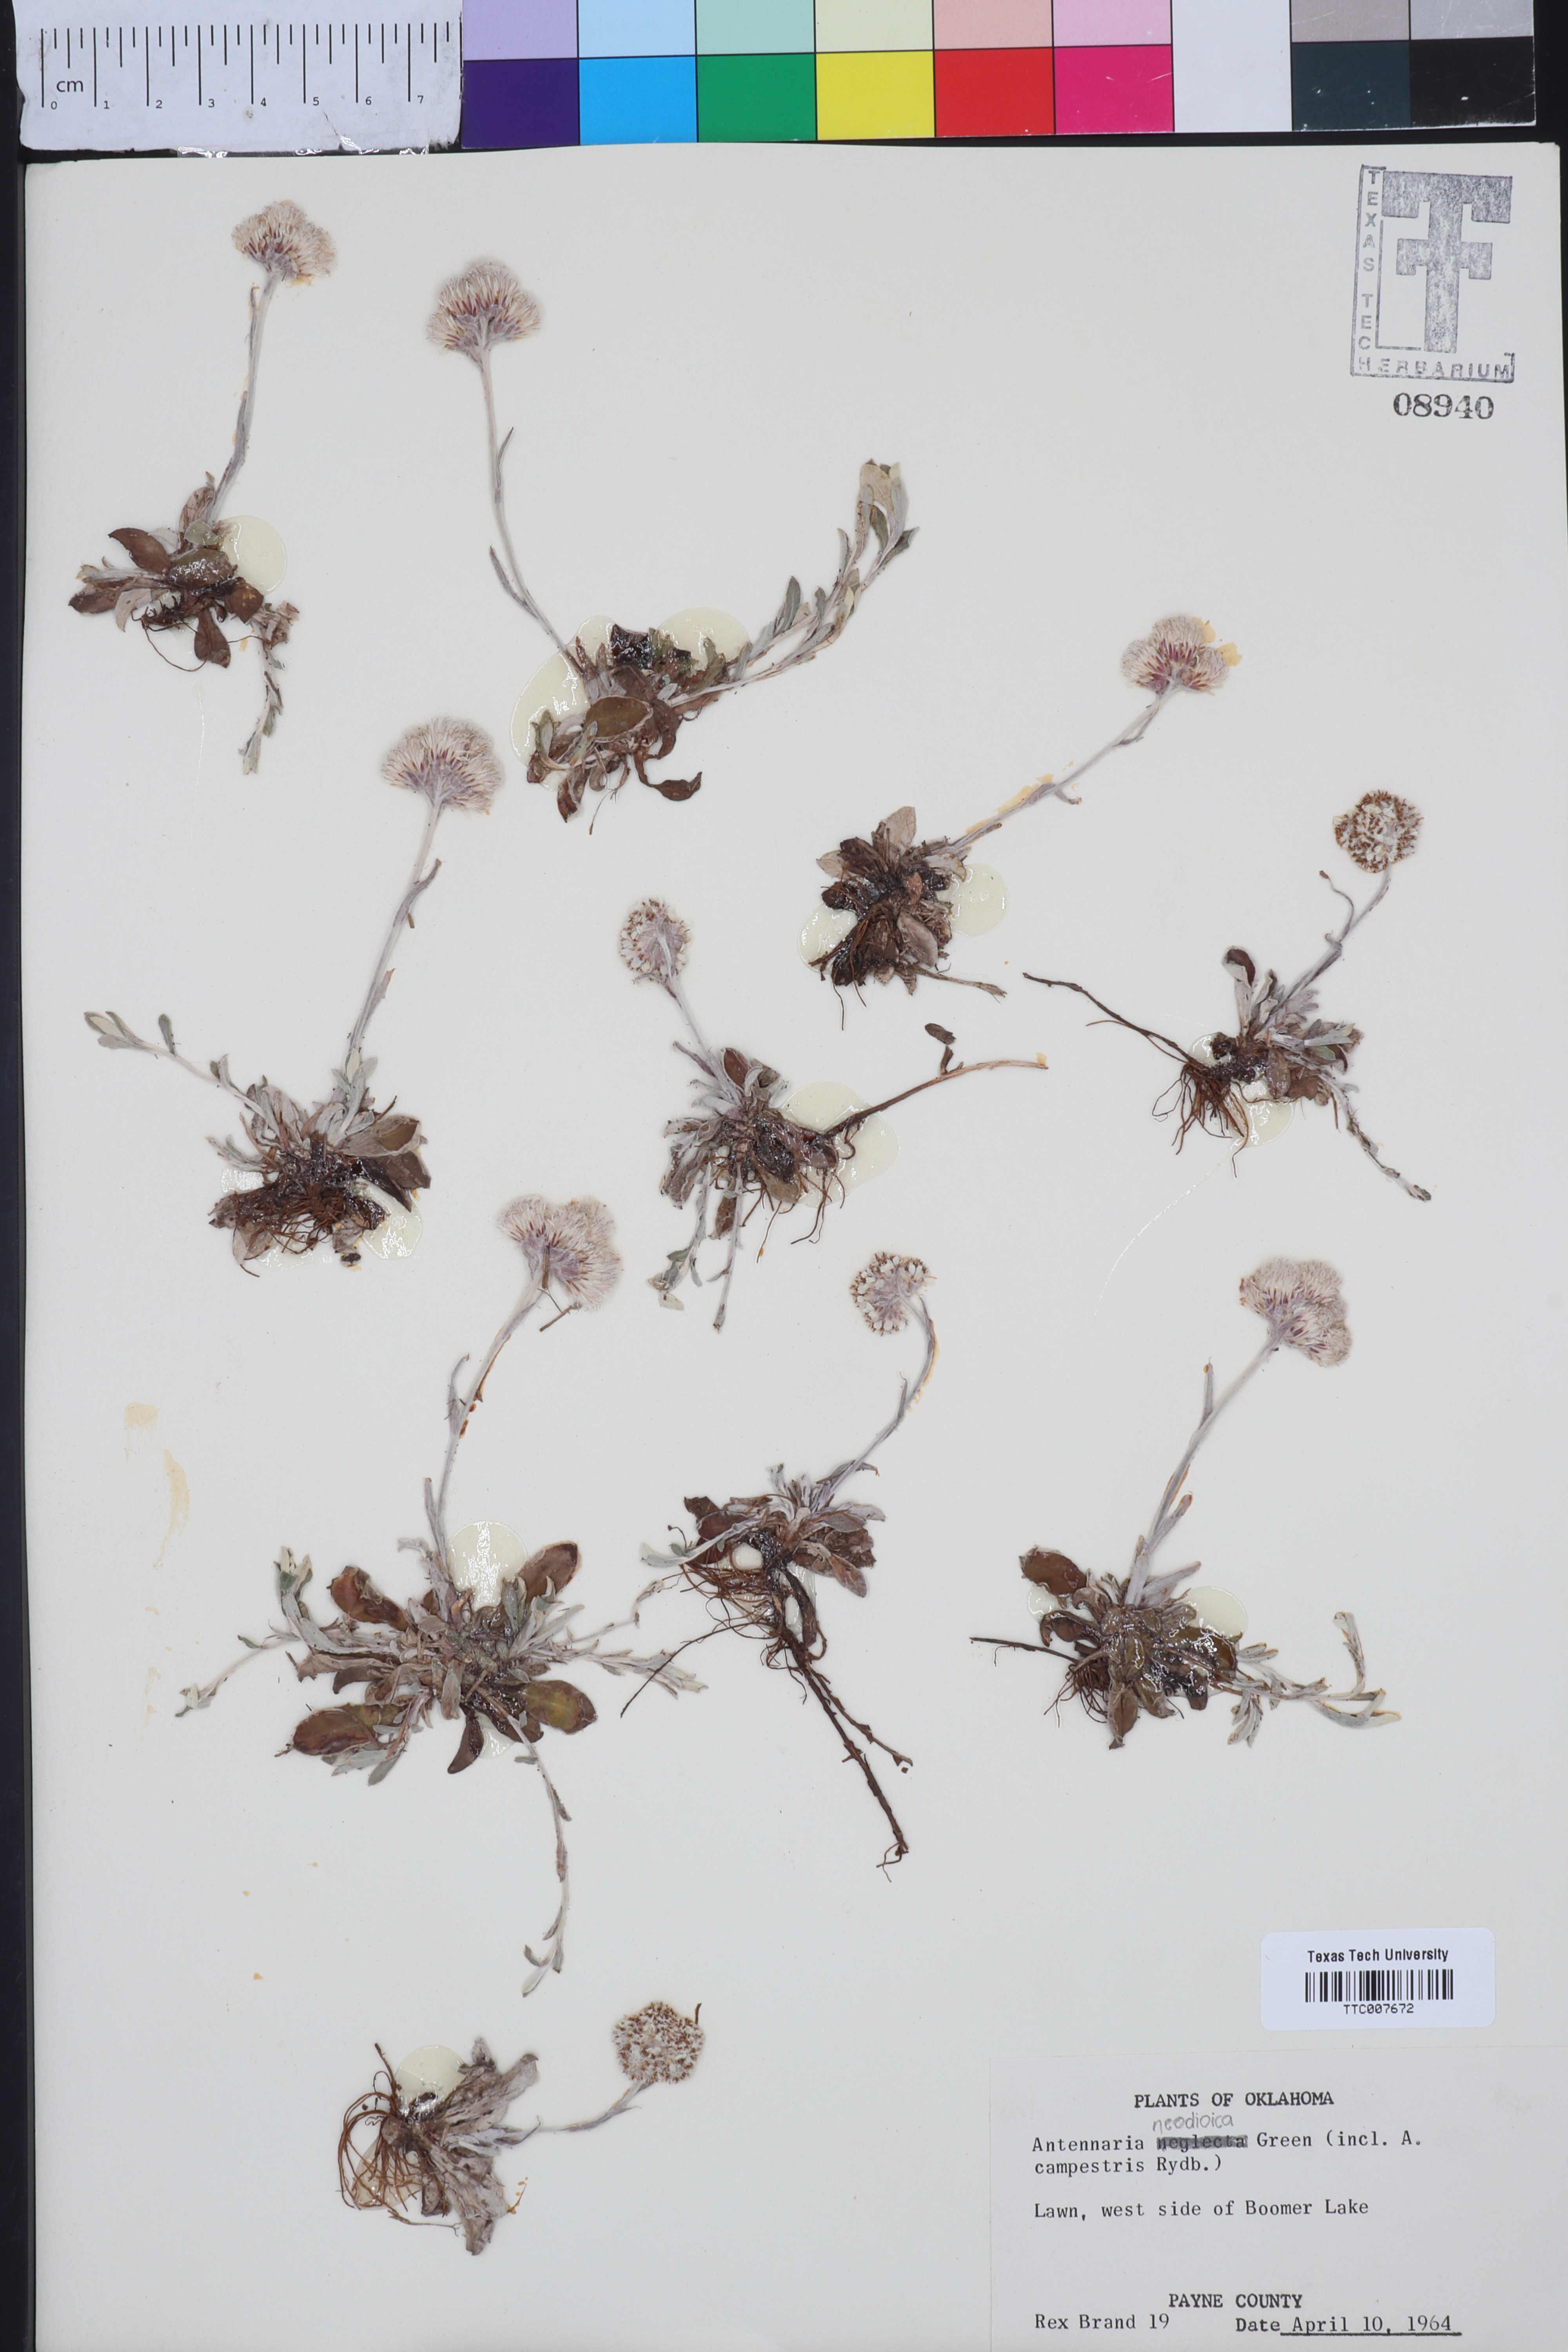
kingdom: Plantae
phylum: Tracheophyta
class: Magnoliopsida
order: Asterales
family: Asteraceae
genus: Antennaria
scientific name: Antennaria neglecta
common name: Field pussytoes
